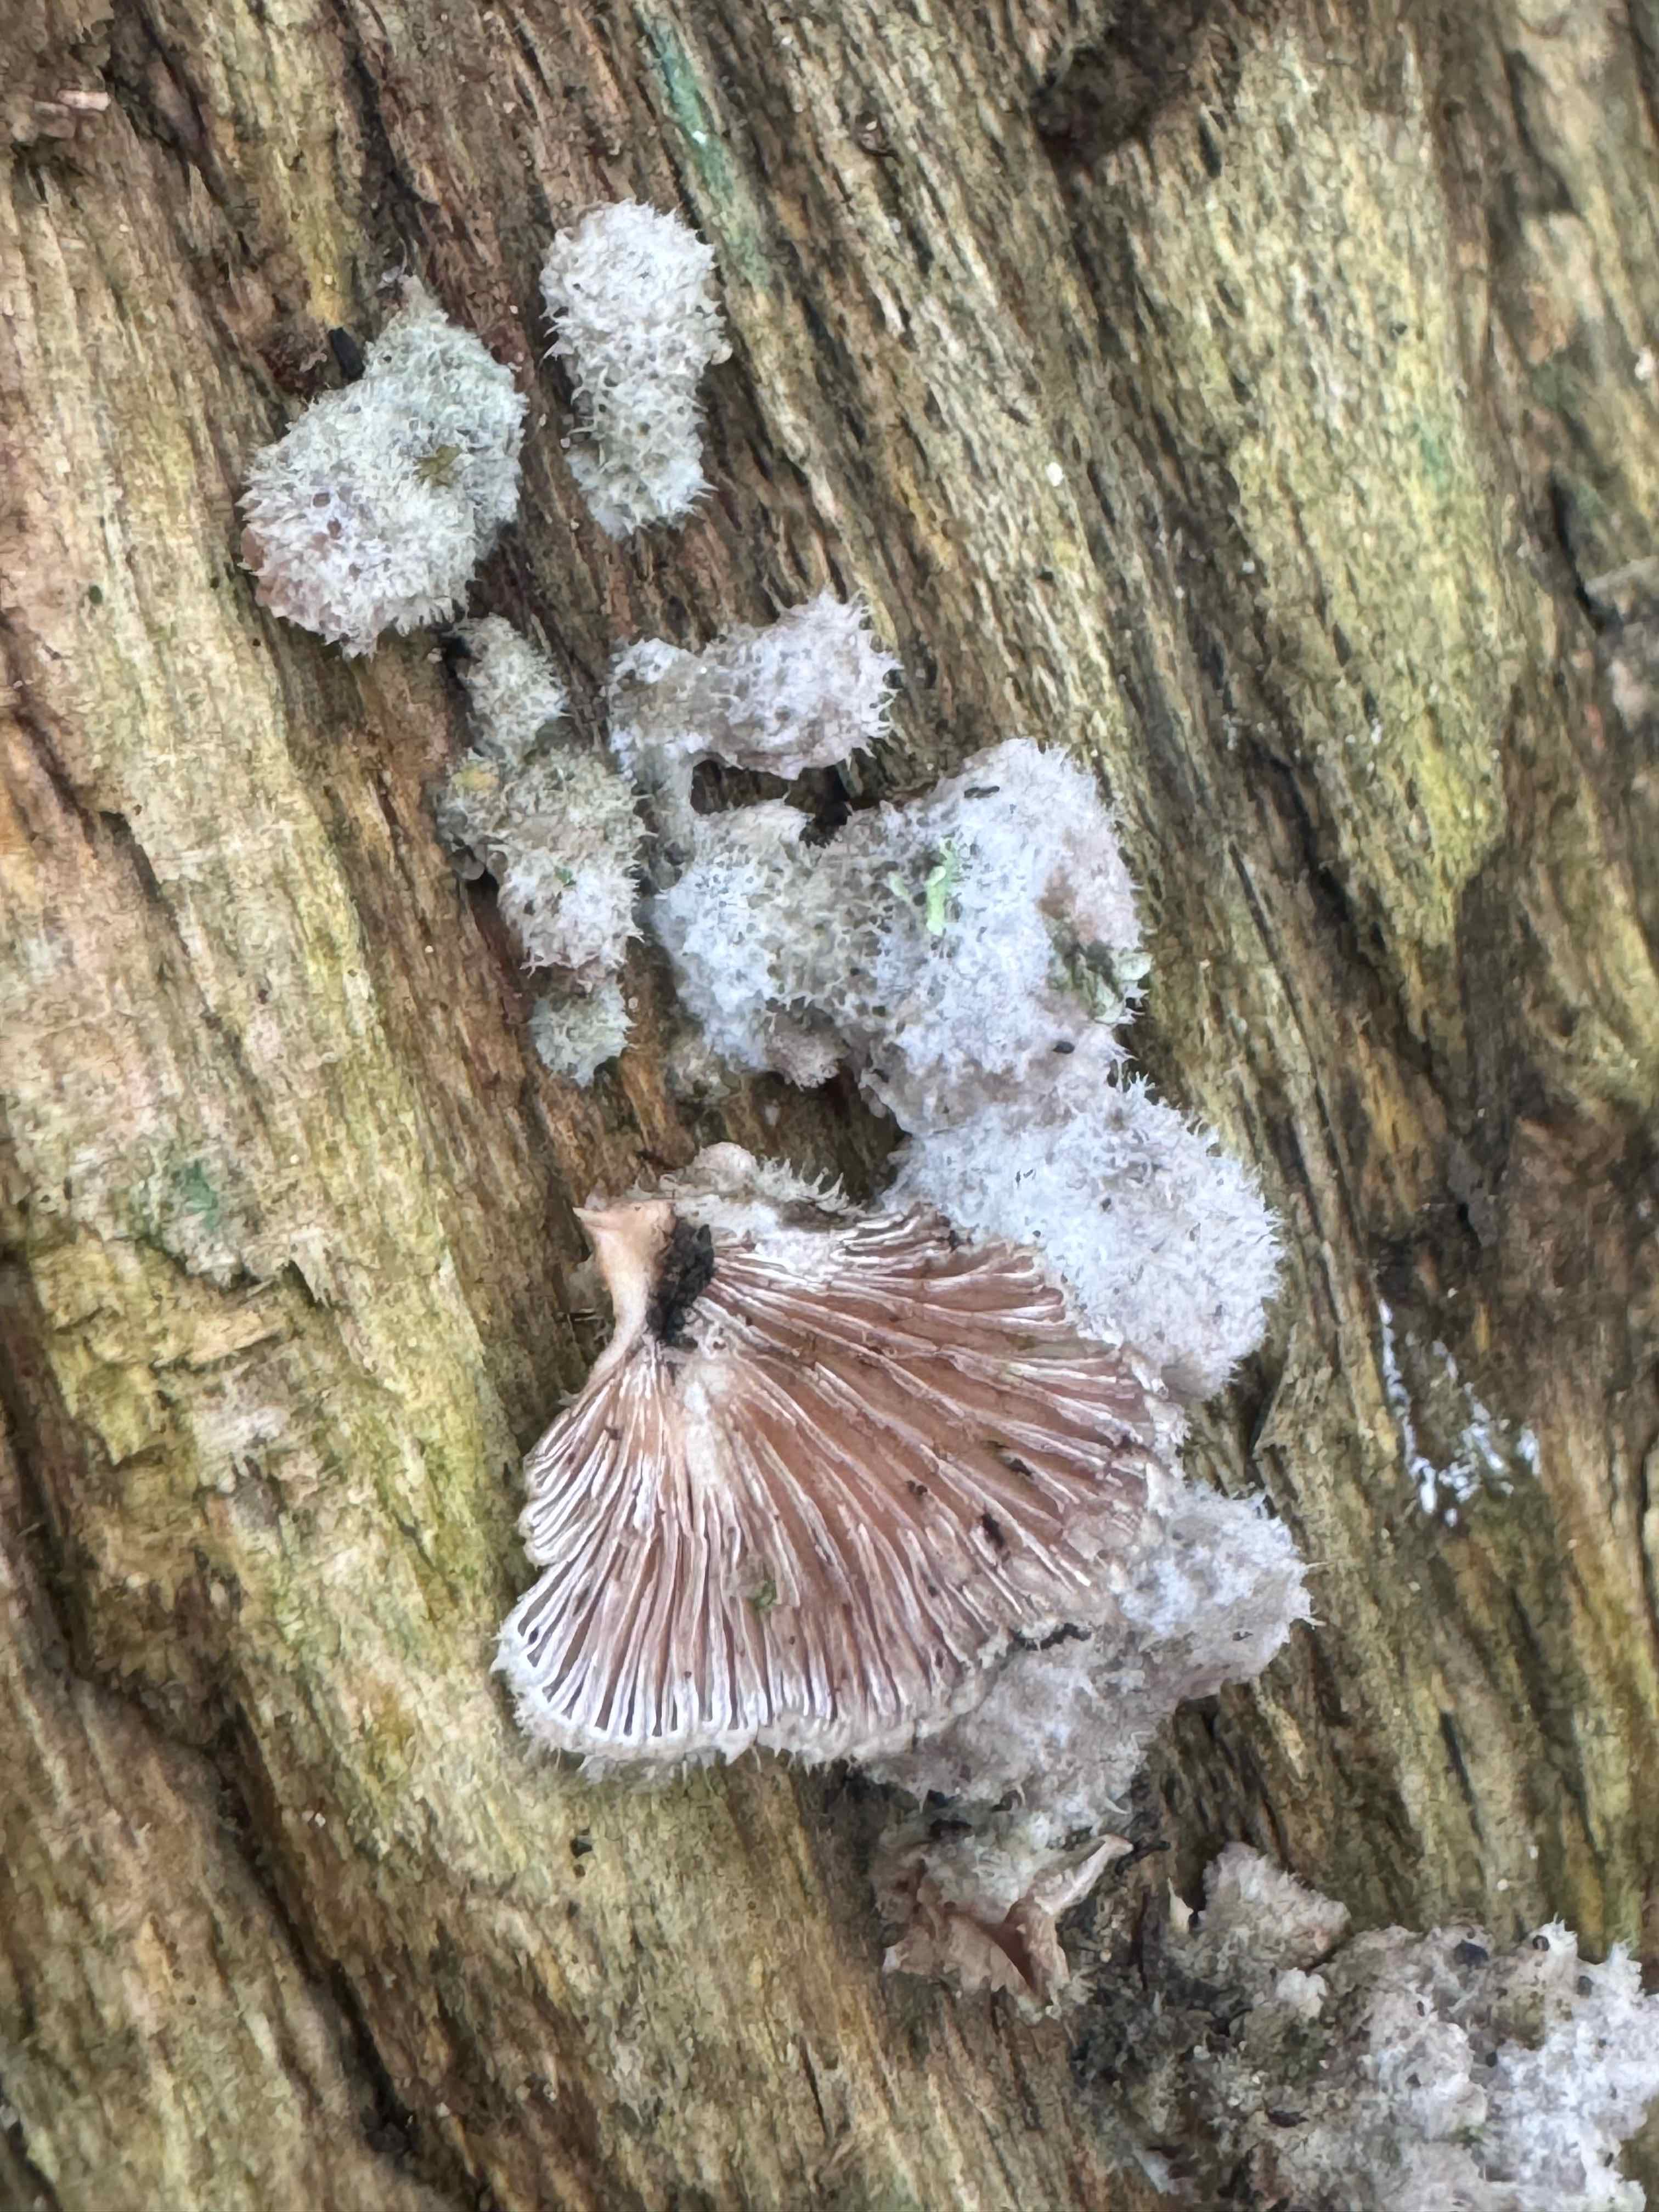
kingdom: Fungi
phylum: Basidiomycota
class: Agaricomycetes
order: Agaricales
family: Schizophyllaceae
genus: Schizophyllum
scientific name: Schizophyllum commune
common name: kløvblad
